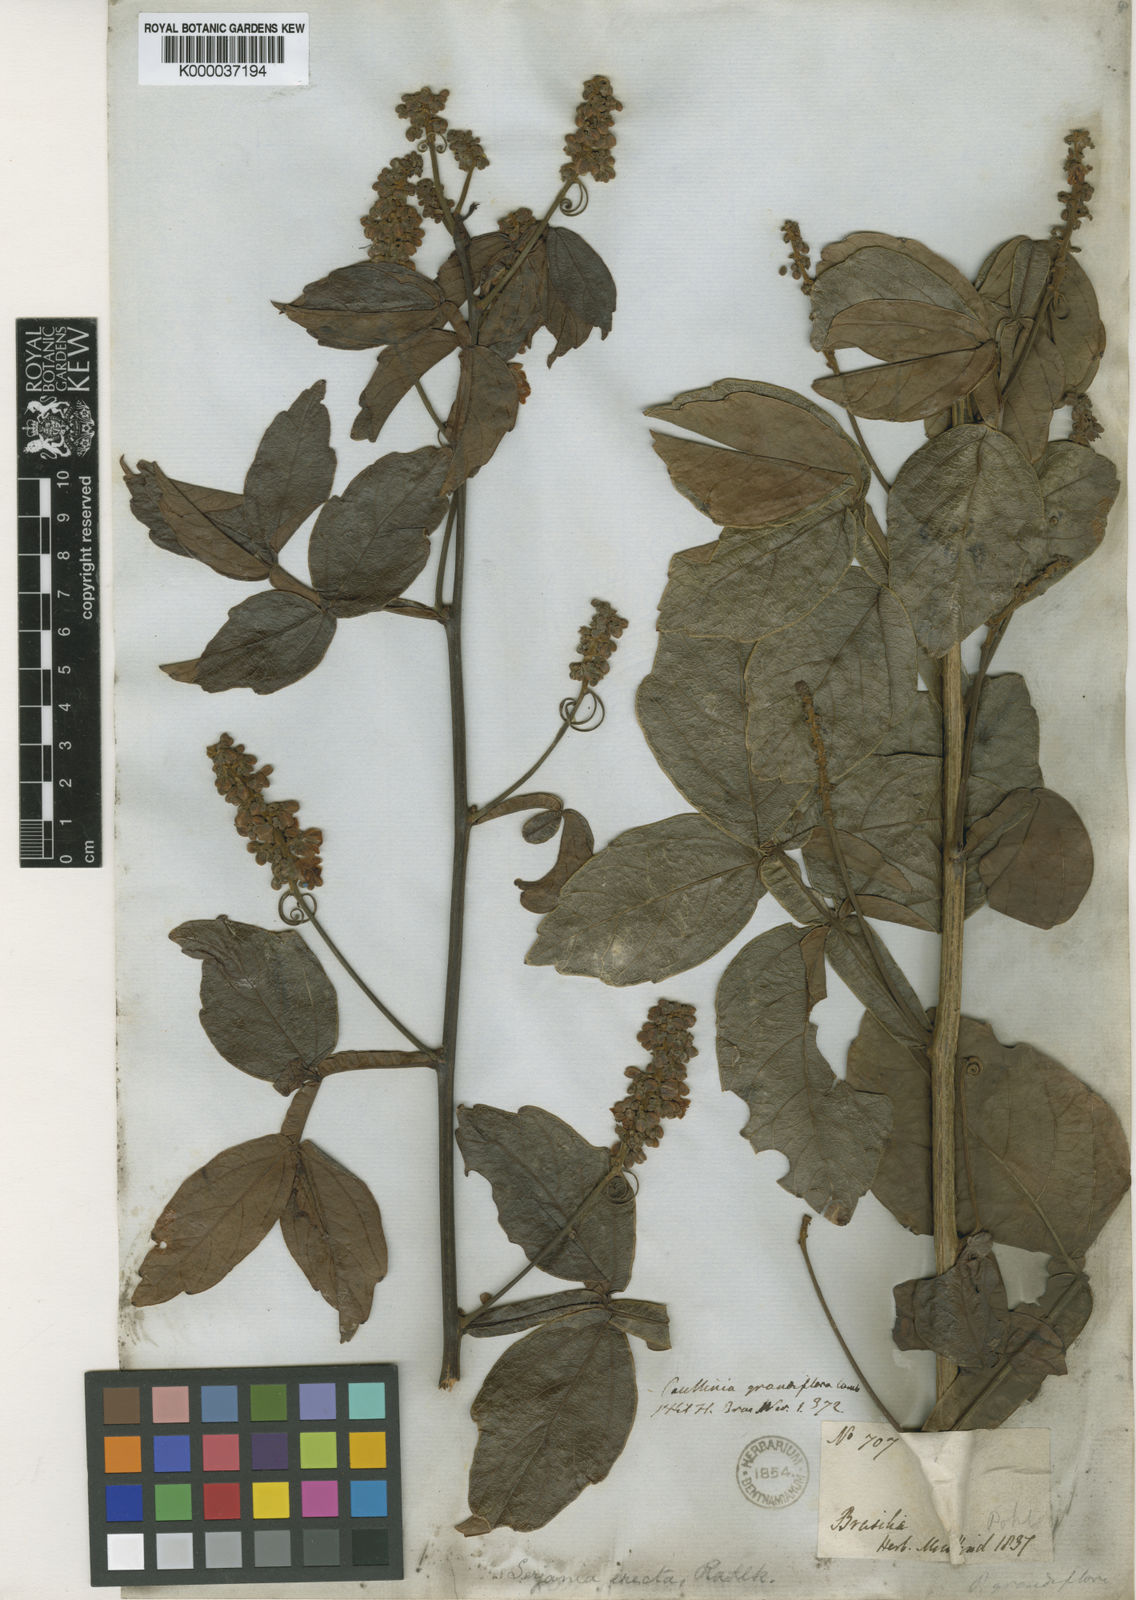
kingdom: Plantae
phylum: Tracheophyta
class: Magnoliopsida
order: Sapindales
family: Sapindaceae
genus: Serjania
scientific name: Serjania erecta
